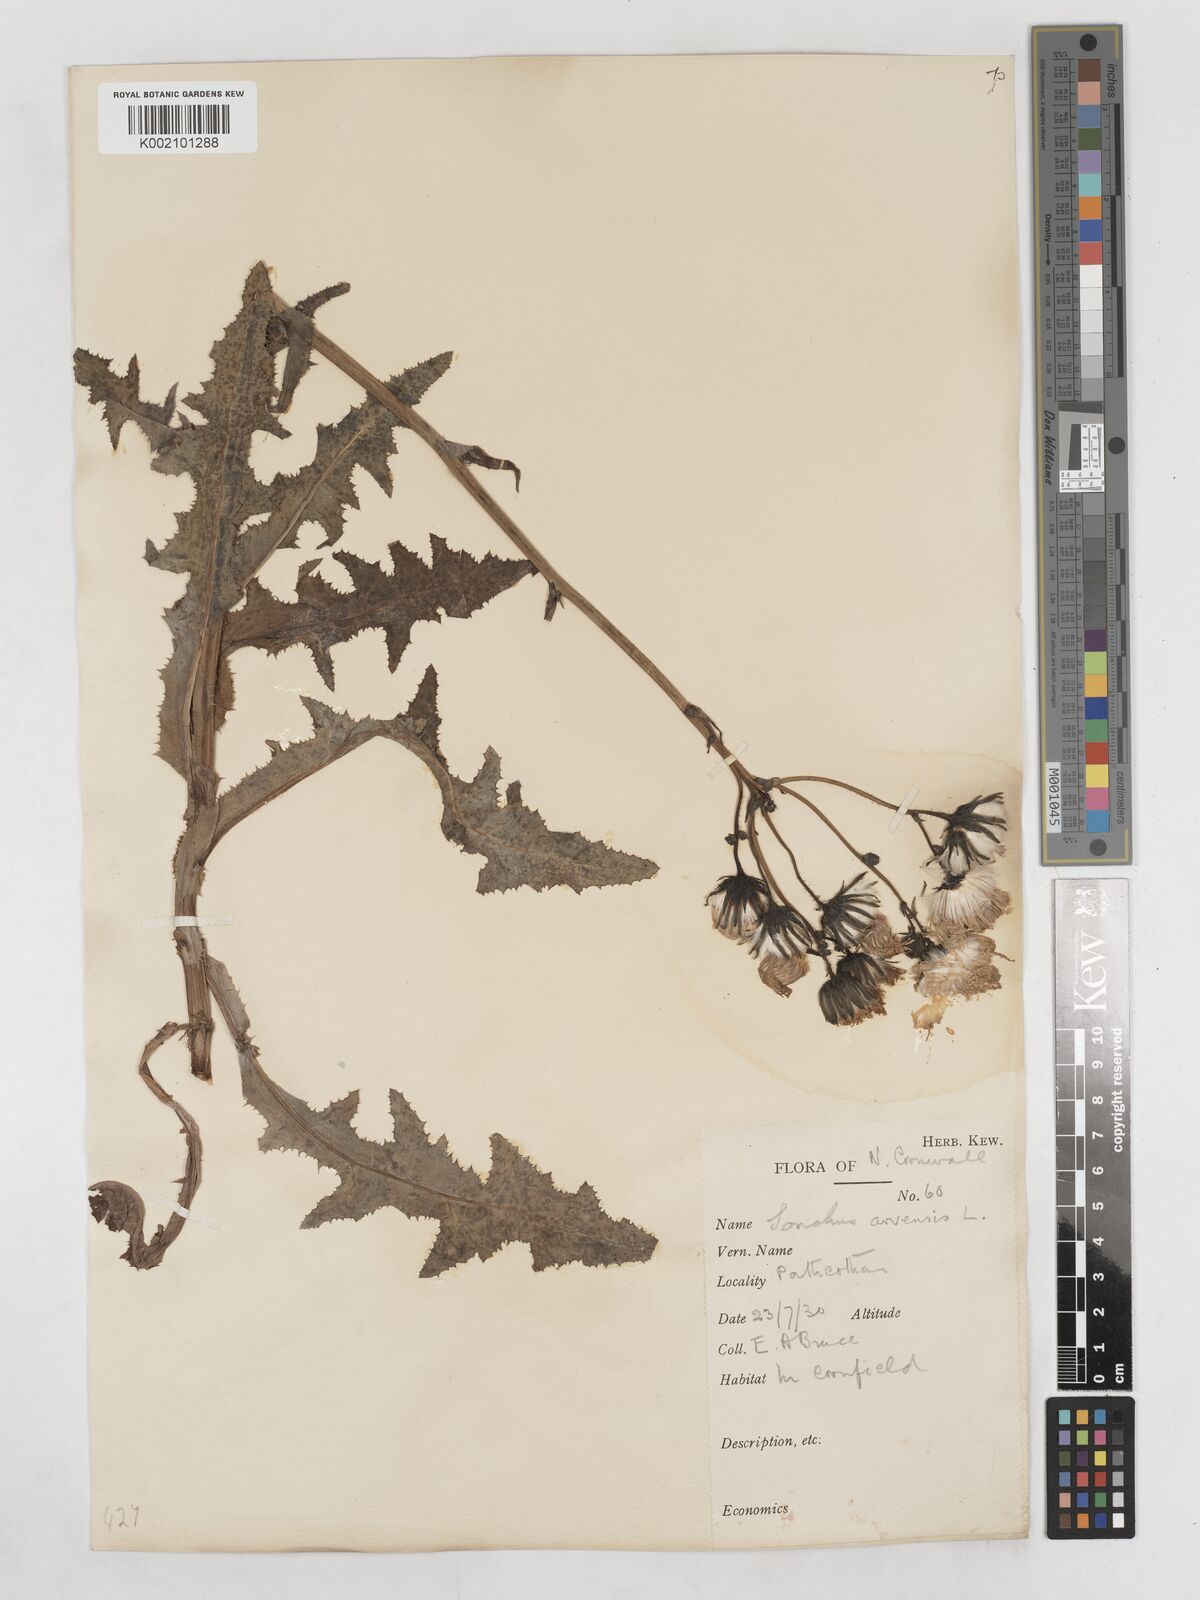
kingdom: Plantae
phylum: Tracheophyta
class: Magnoliopsida
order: Asterales
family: Asteraceae
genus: Sonchus
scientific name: Sonchus arvensis
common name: Perennial sow-thistle
